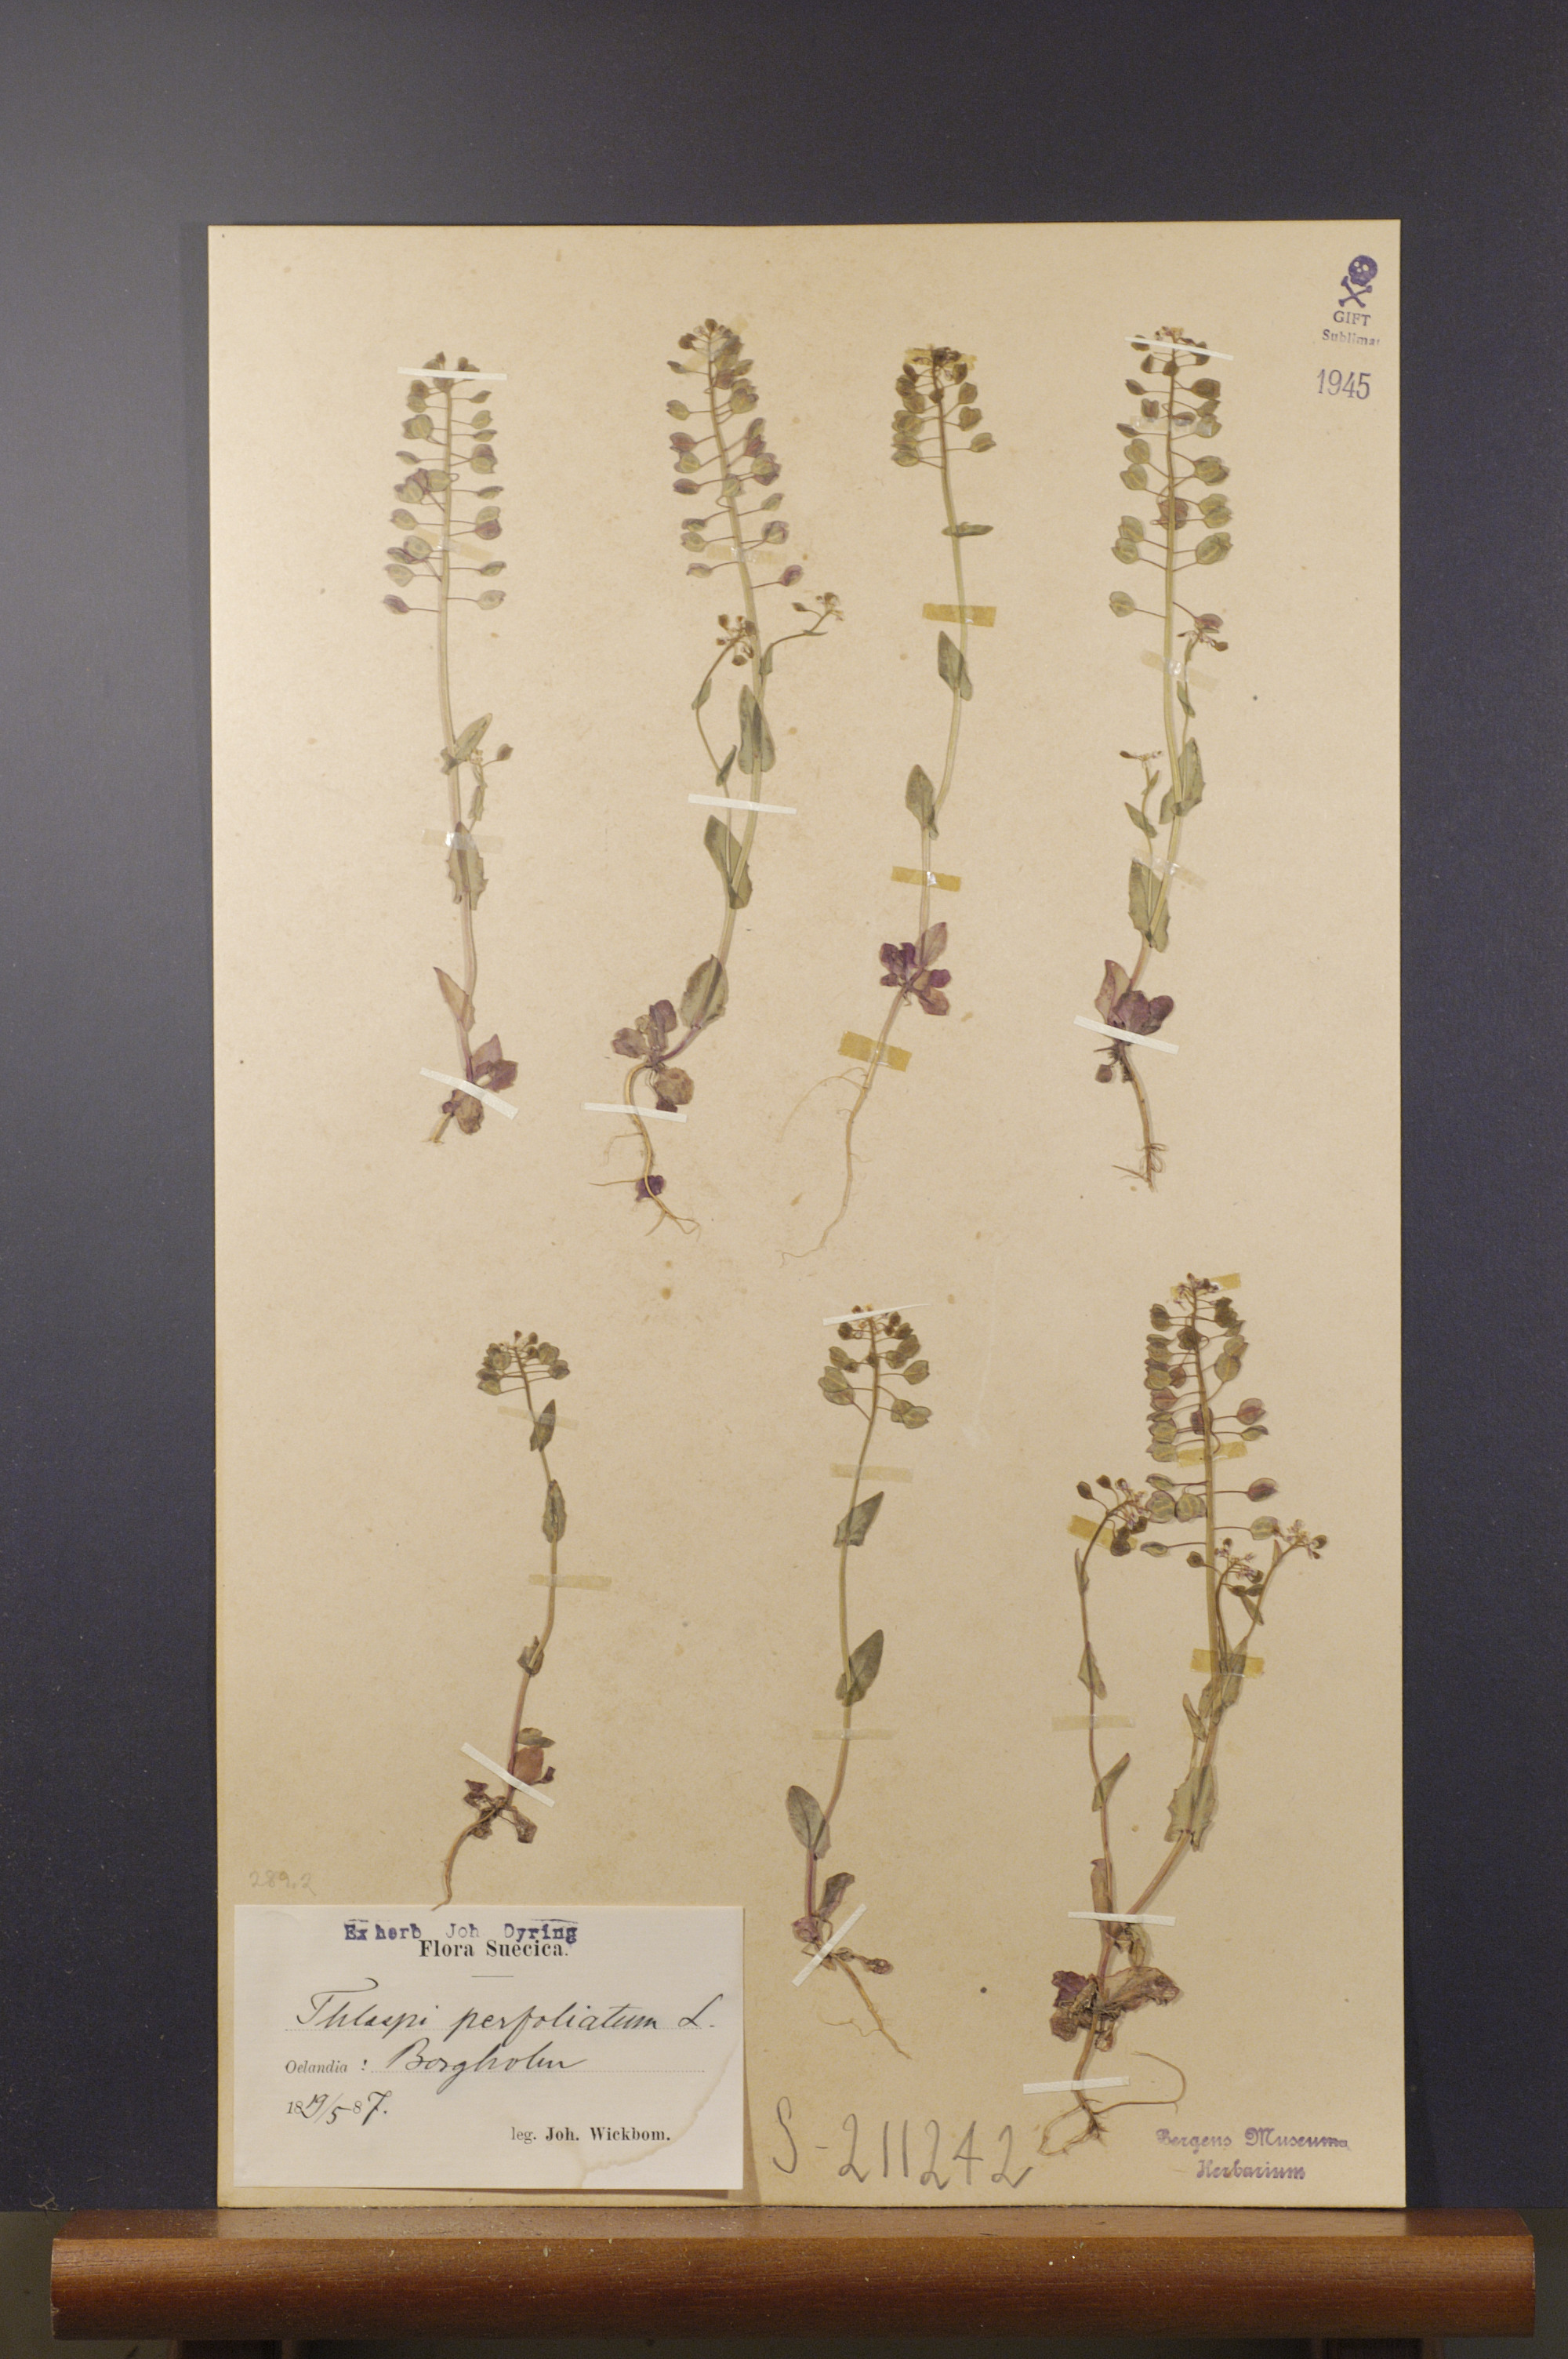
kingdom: Plantae
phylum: Tracheophyta
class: Magnoliopsida
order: Brassicales
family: Brassicaceae
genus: Noccaea
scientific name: Noccaea perfoliata
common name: Perfoliate pennycress
